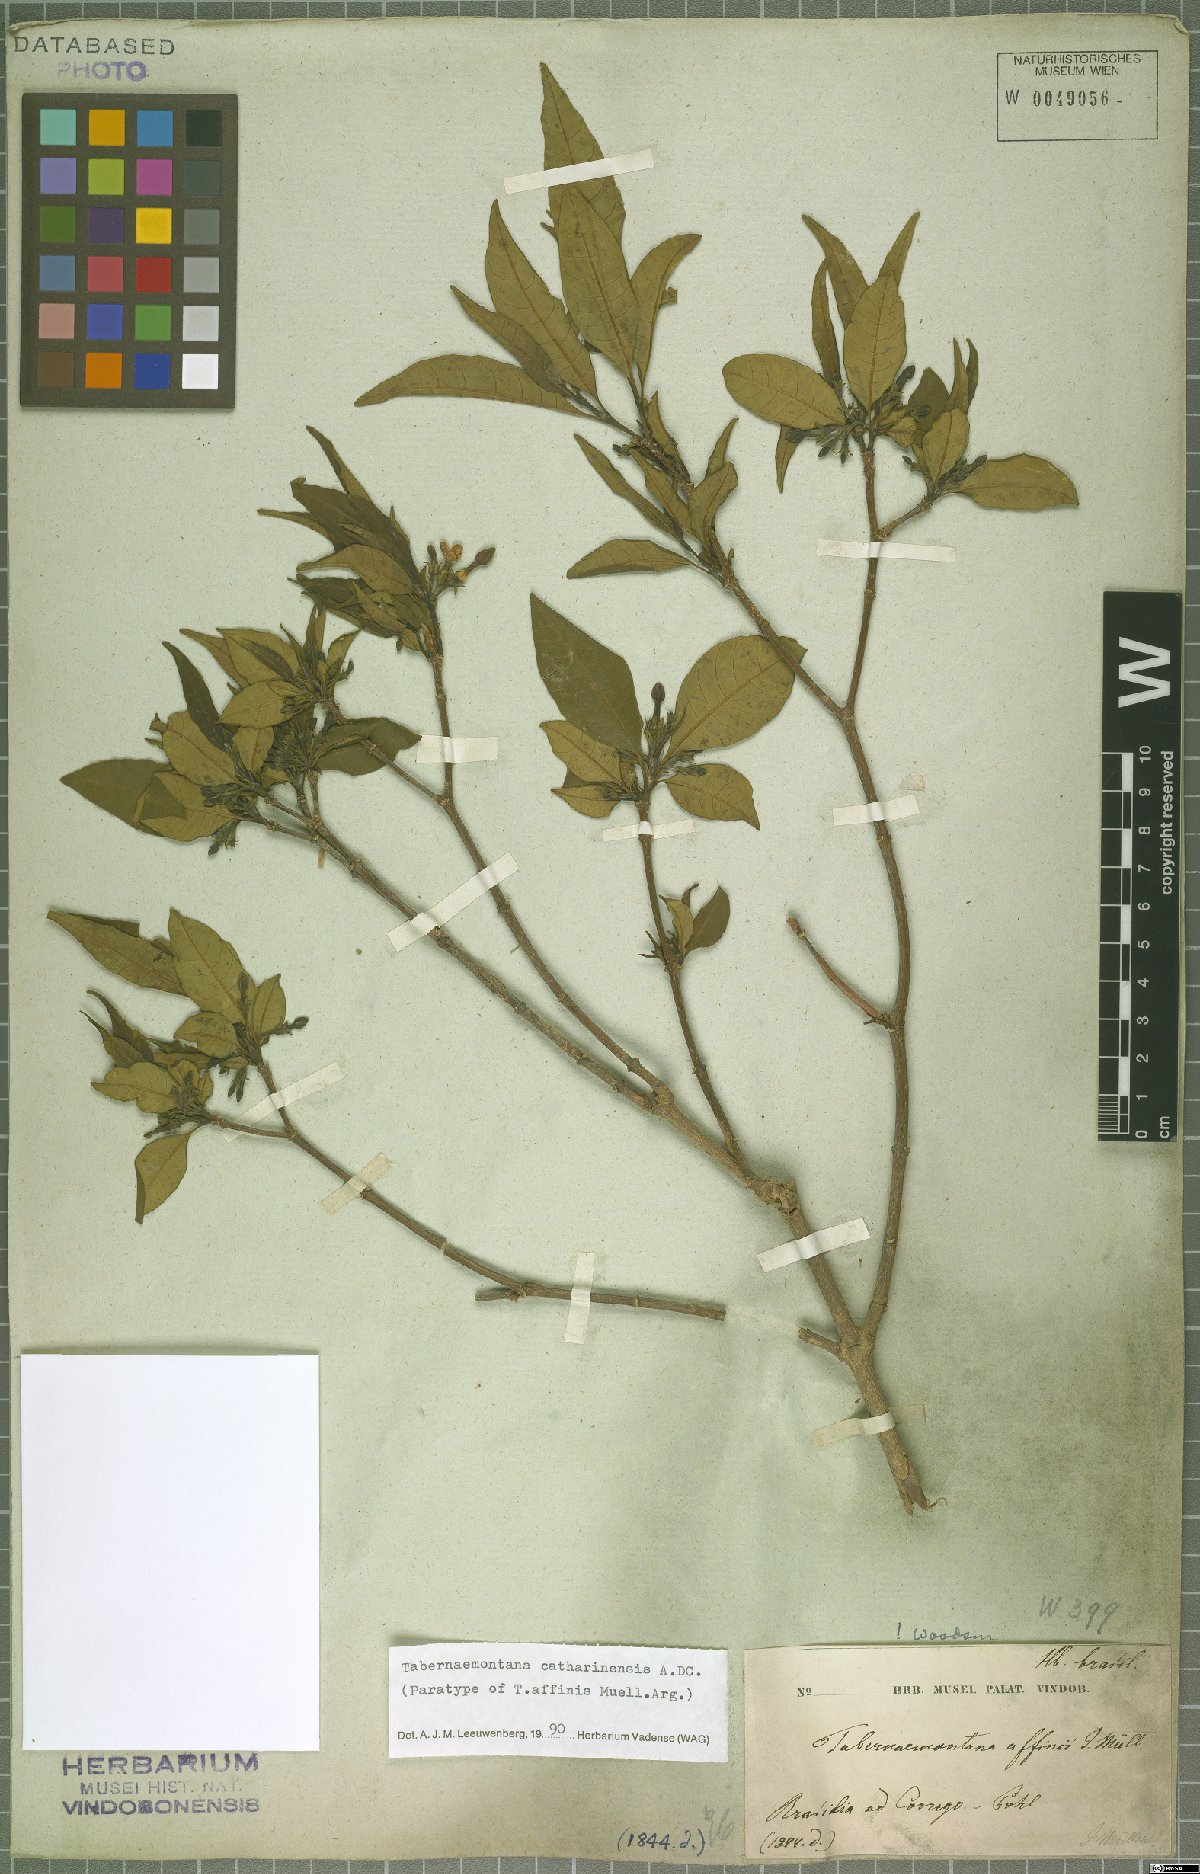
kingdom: Plantae
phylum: Tracheophyta
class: Magnoliopsida
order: Gentianales
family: Apocynaceae
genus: Tabernaemontana
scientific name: Tabernaemontana catharinensis
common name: Pinwheel-flower
